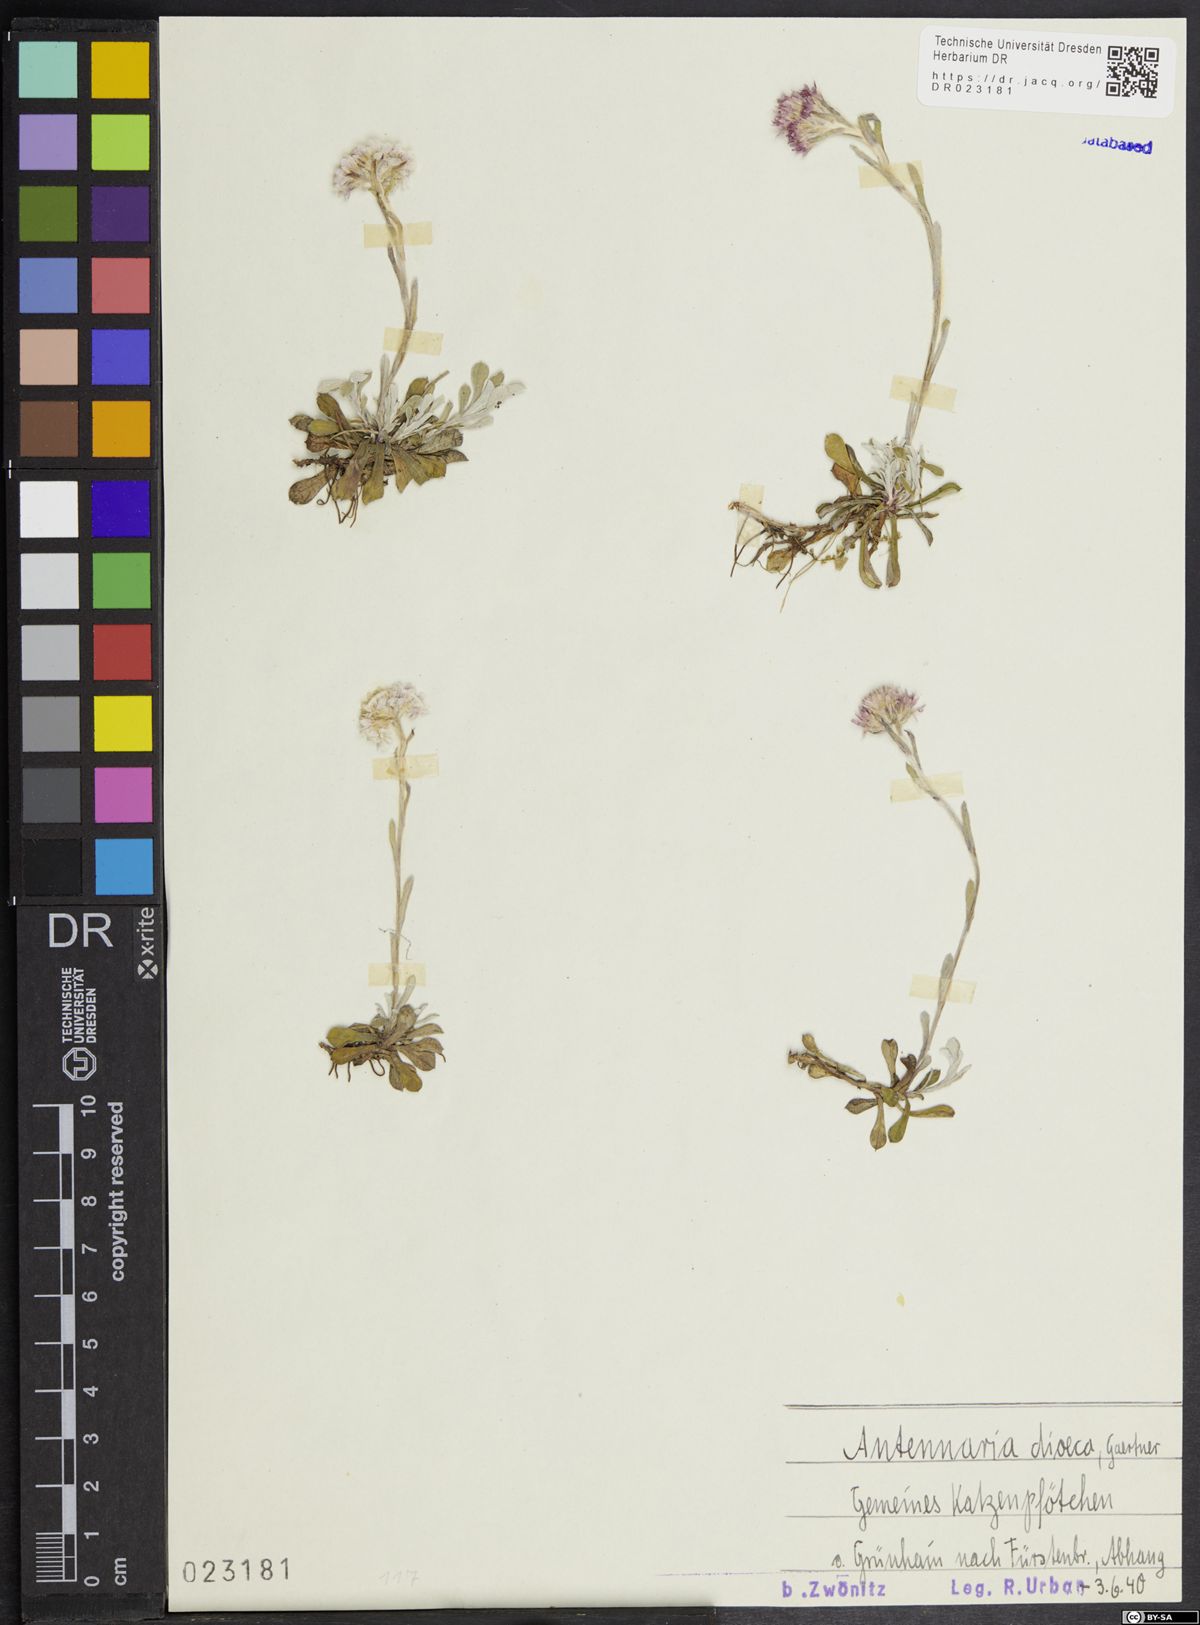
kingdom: Plantae
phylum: Tracheophyta
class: Magnoliopsida
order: Asterales
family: Asteraceae
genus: Antennaria
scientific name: Antennaria dioica
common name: Mountain everlasting
